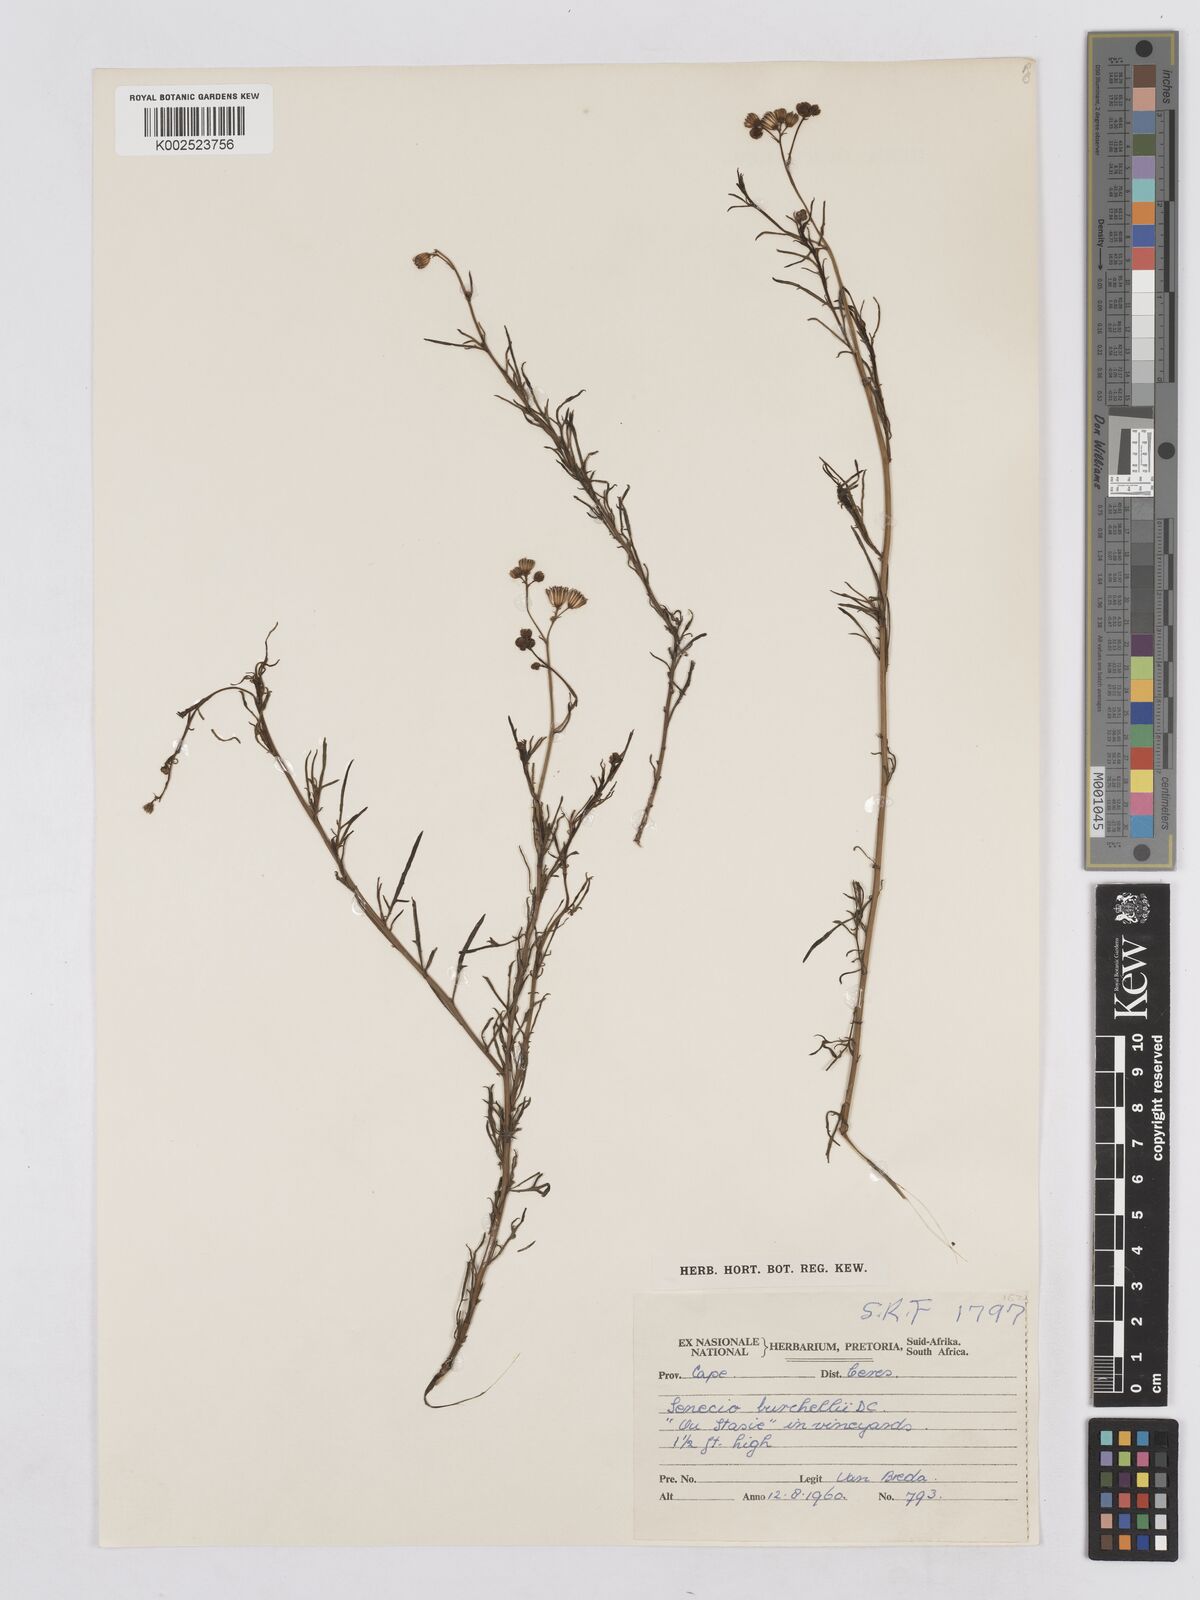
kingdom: Plantae
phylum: Tracheophyta
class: Magnoliopsida
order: Asterales
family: Asteraceae
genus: Senecio
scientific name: Senecio burchellii
